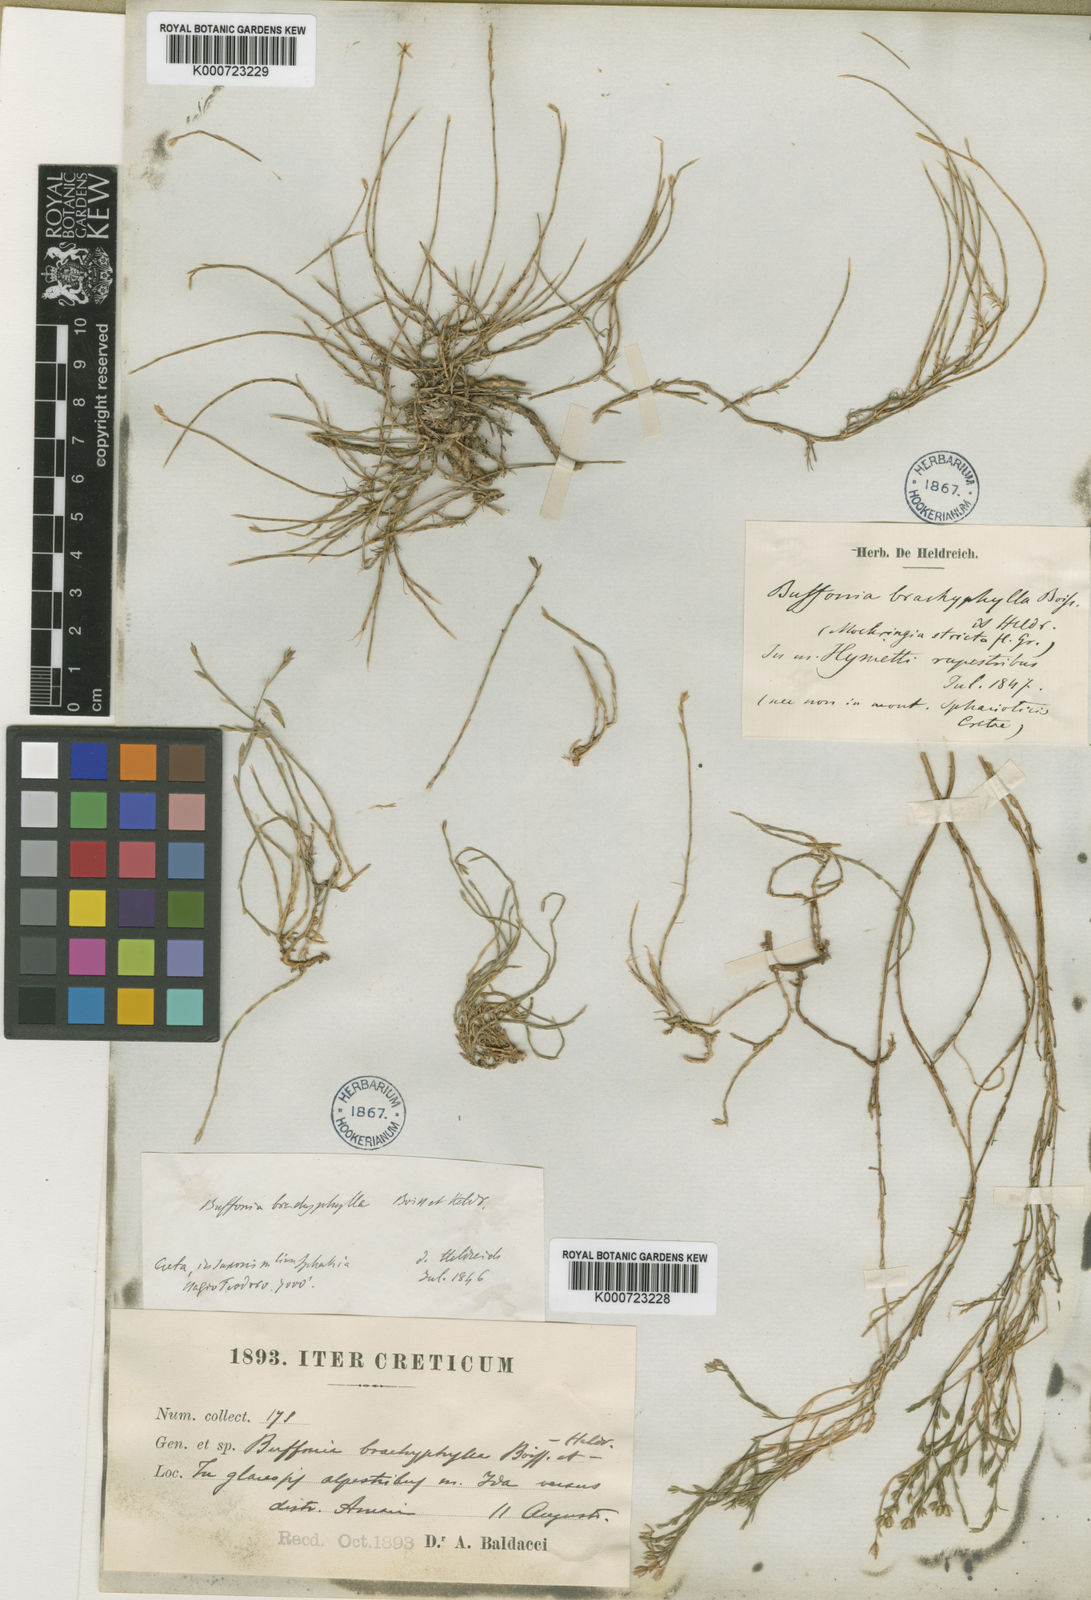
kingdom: Plantae
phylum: Tracheophyta
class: Magnoliopsida
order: Caryophyllales
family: Caryophyllaceae
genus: Bufonia
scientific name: Bufonia stricta
